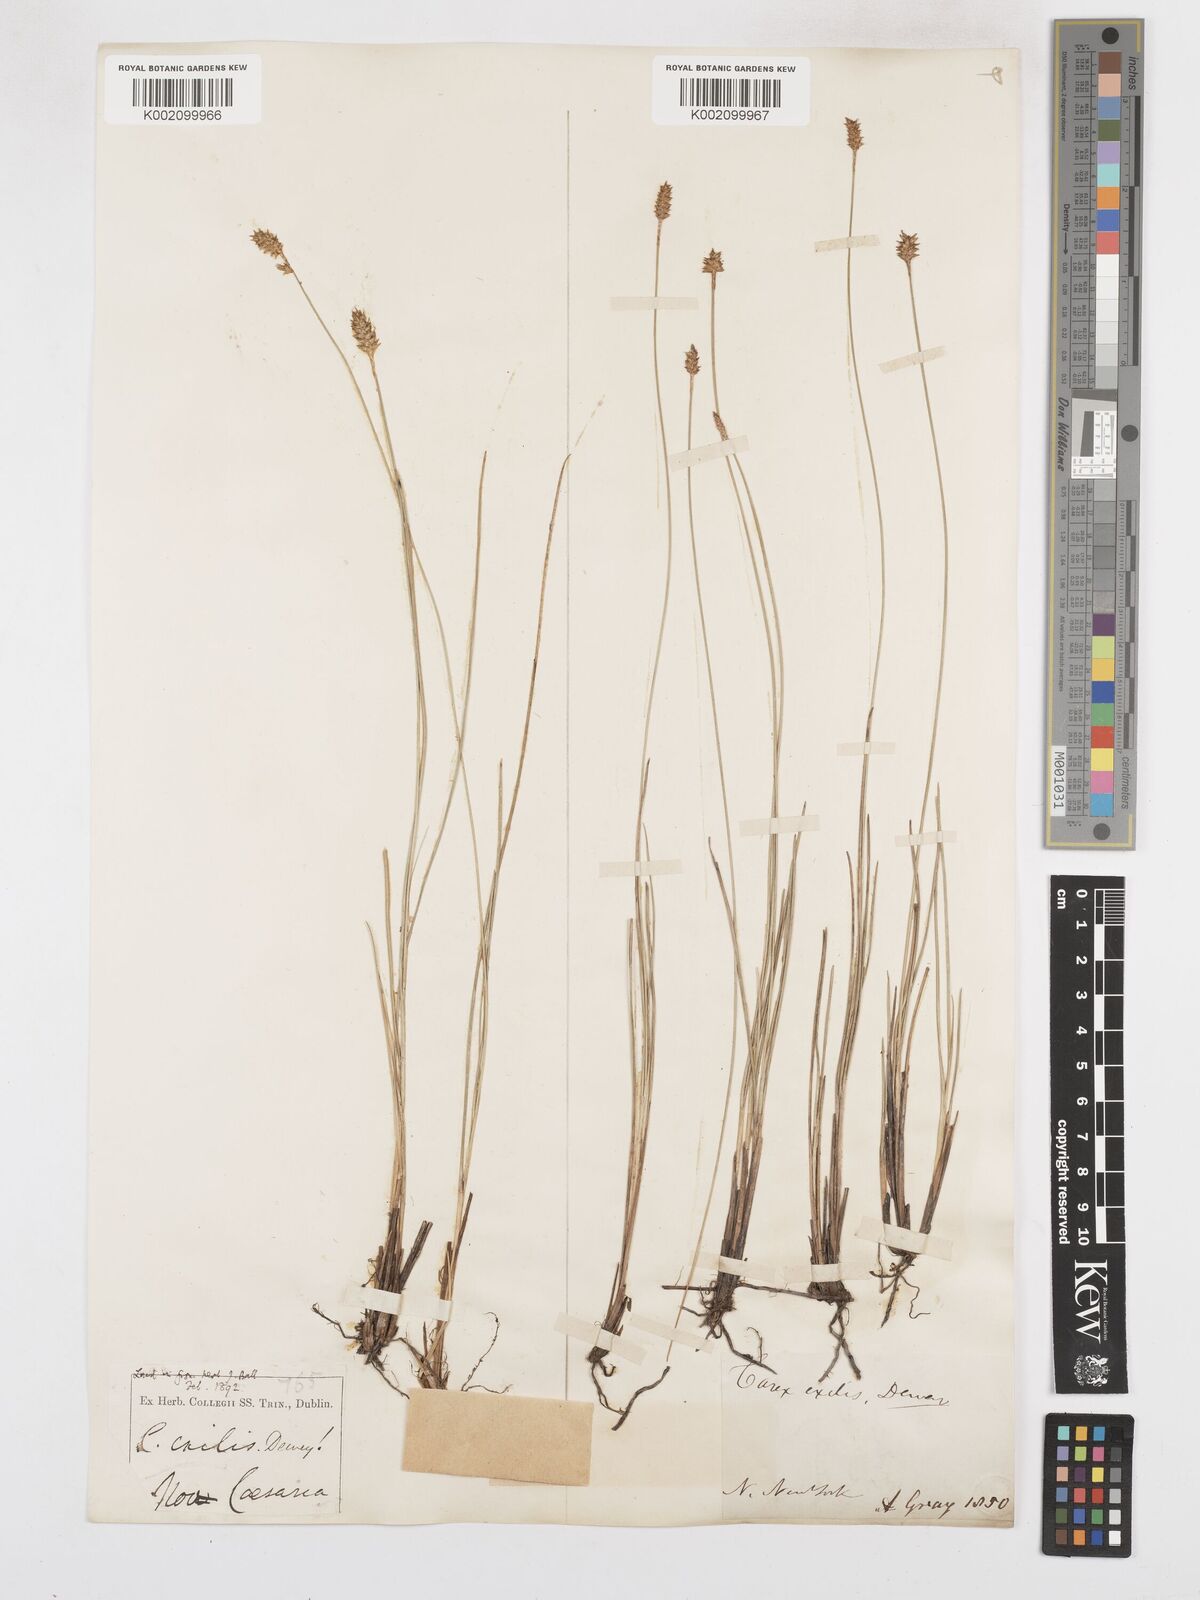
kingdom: Plantae
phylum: Tracheophyta
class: Liliopsida
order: Poales
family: Cyperaceae
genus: Carex
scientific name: Carex exilis
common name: Coastal sedge
